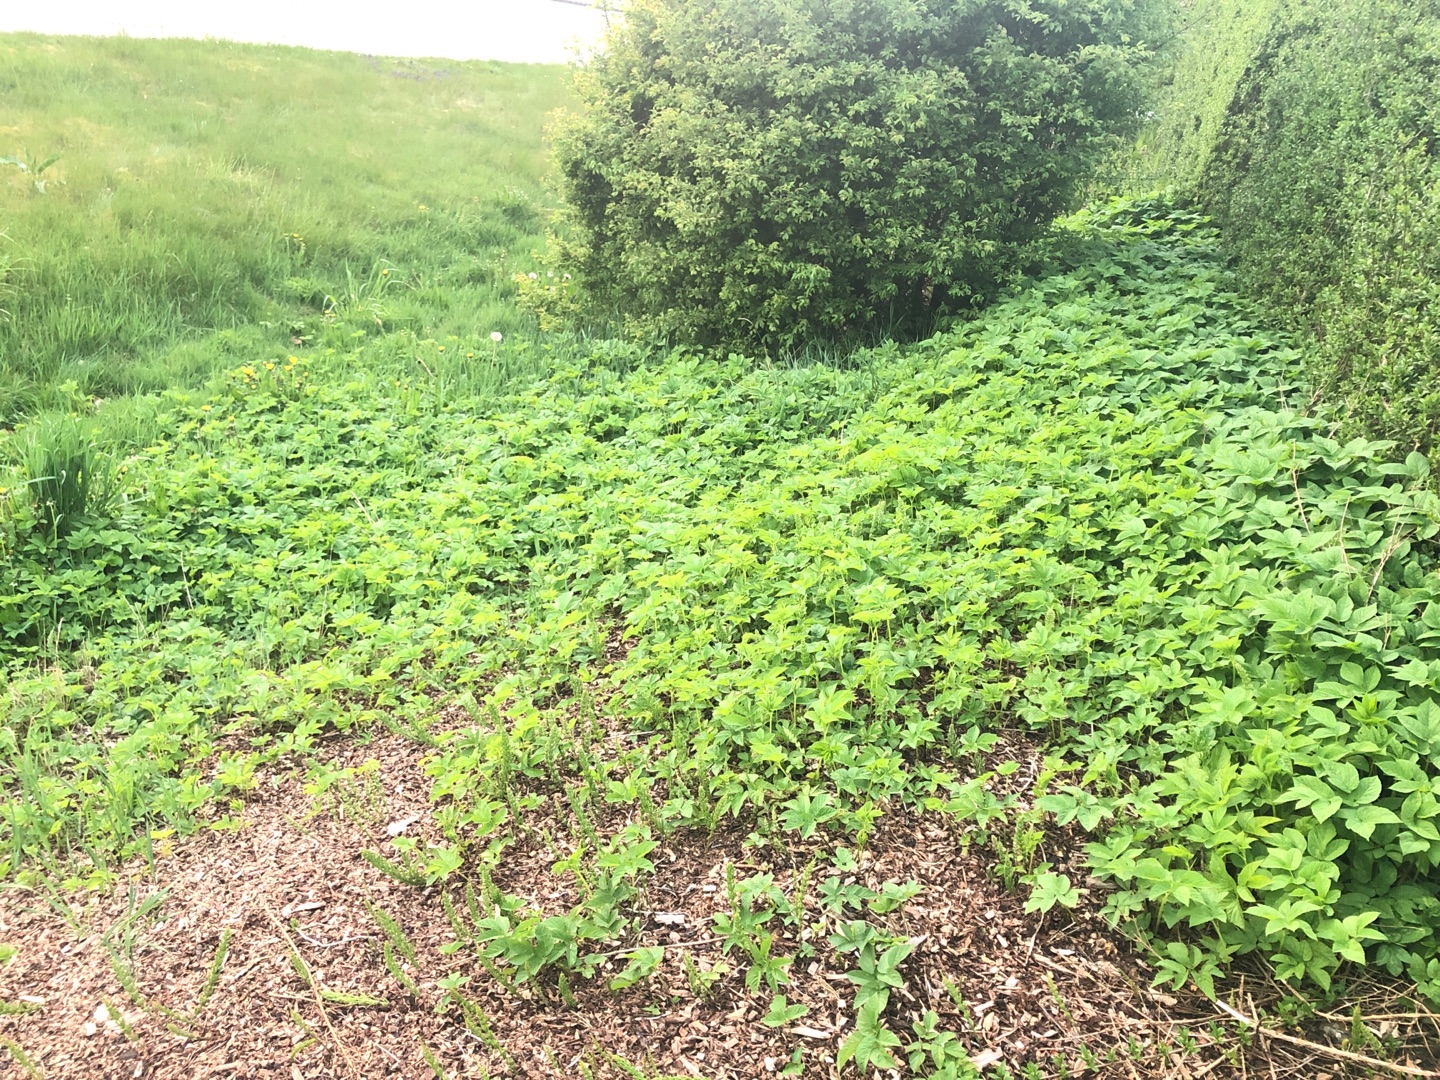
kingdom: Plantae
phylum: Tracheophyta
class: Magnoliopsida
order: Apiales
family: Apiaceae
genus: Aegopodium
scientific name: Aegopodium podagraria
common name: Skvalderkål
